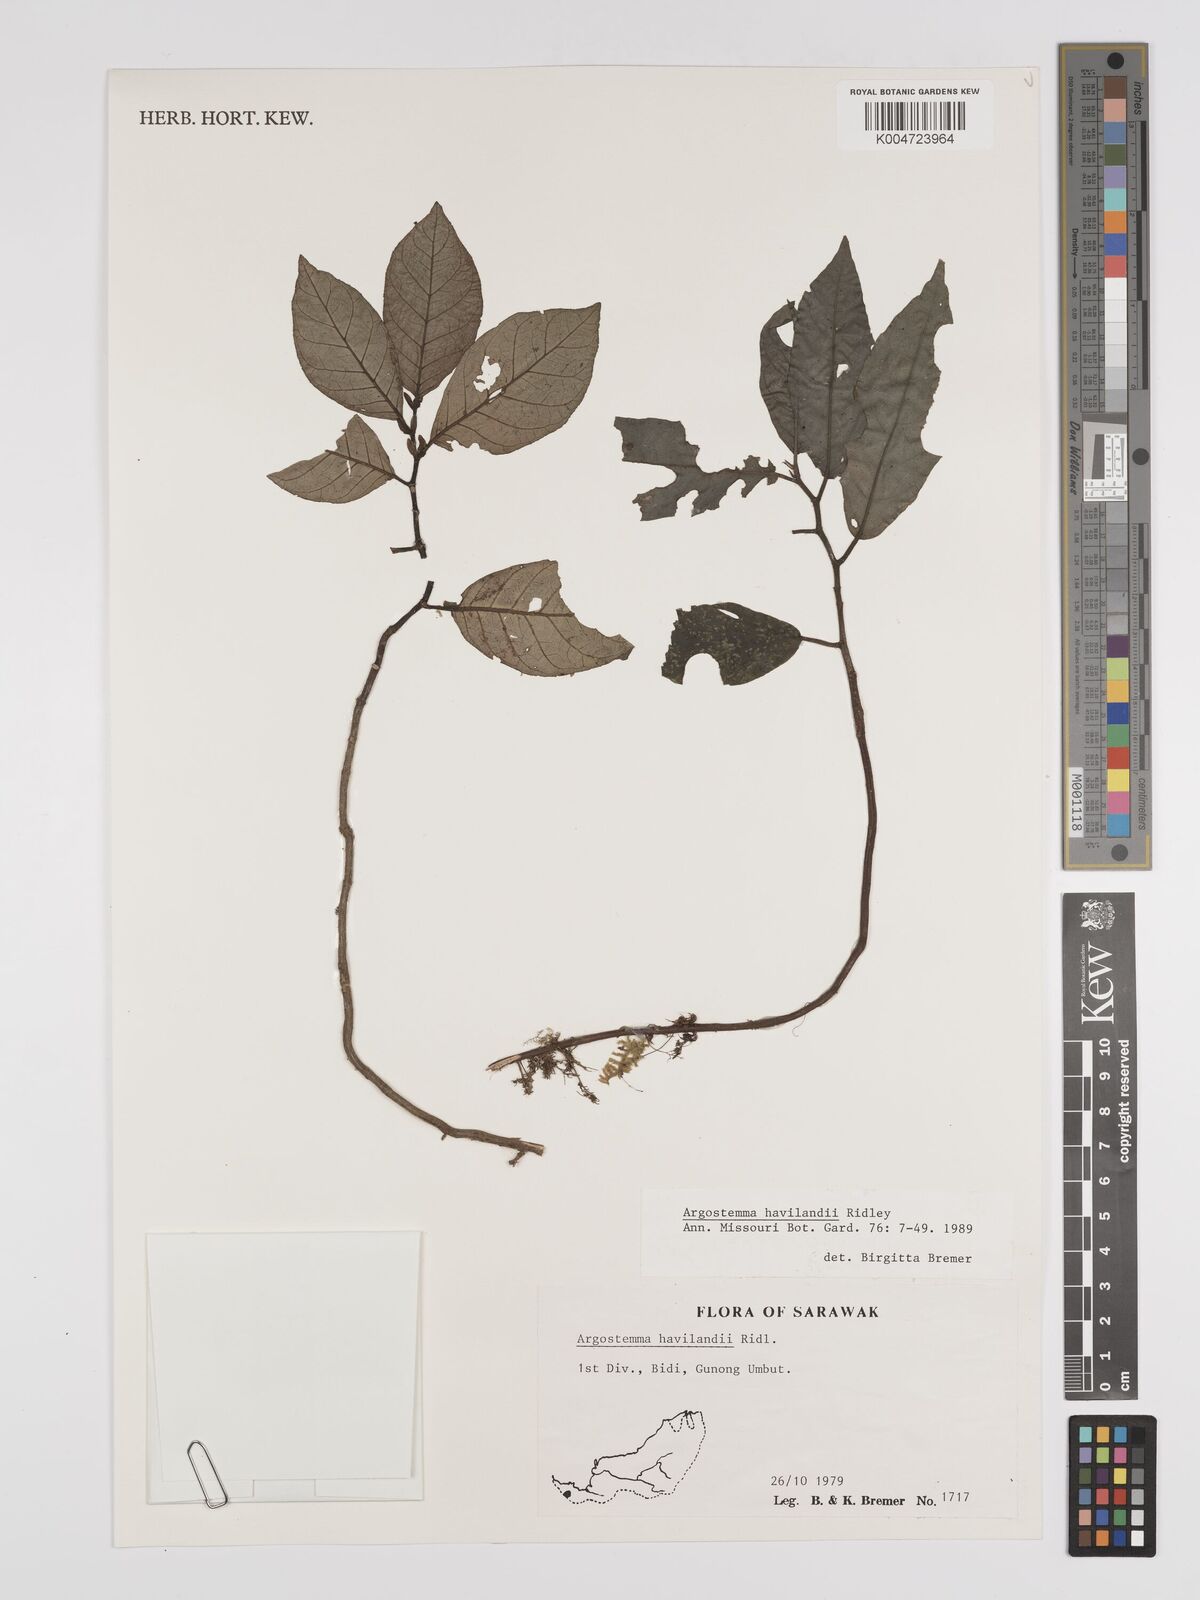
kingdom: Plantae
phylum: Tracheophyta
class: Magnoliopsida
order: Gentianales
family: Rubiaceae
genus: Argostemma
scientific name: Argostemma havilandii
